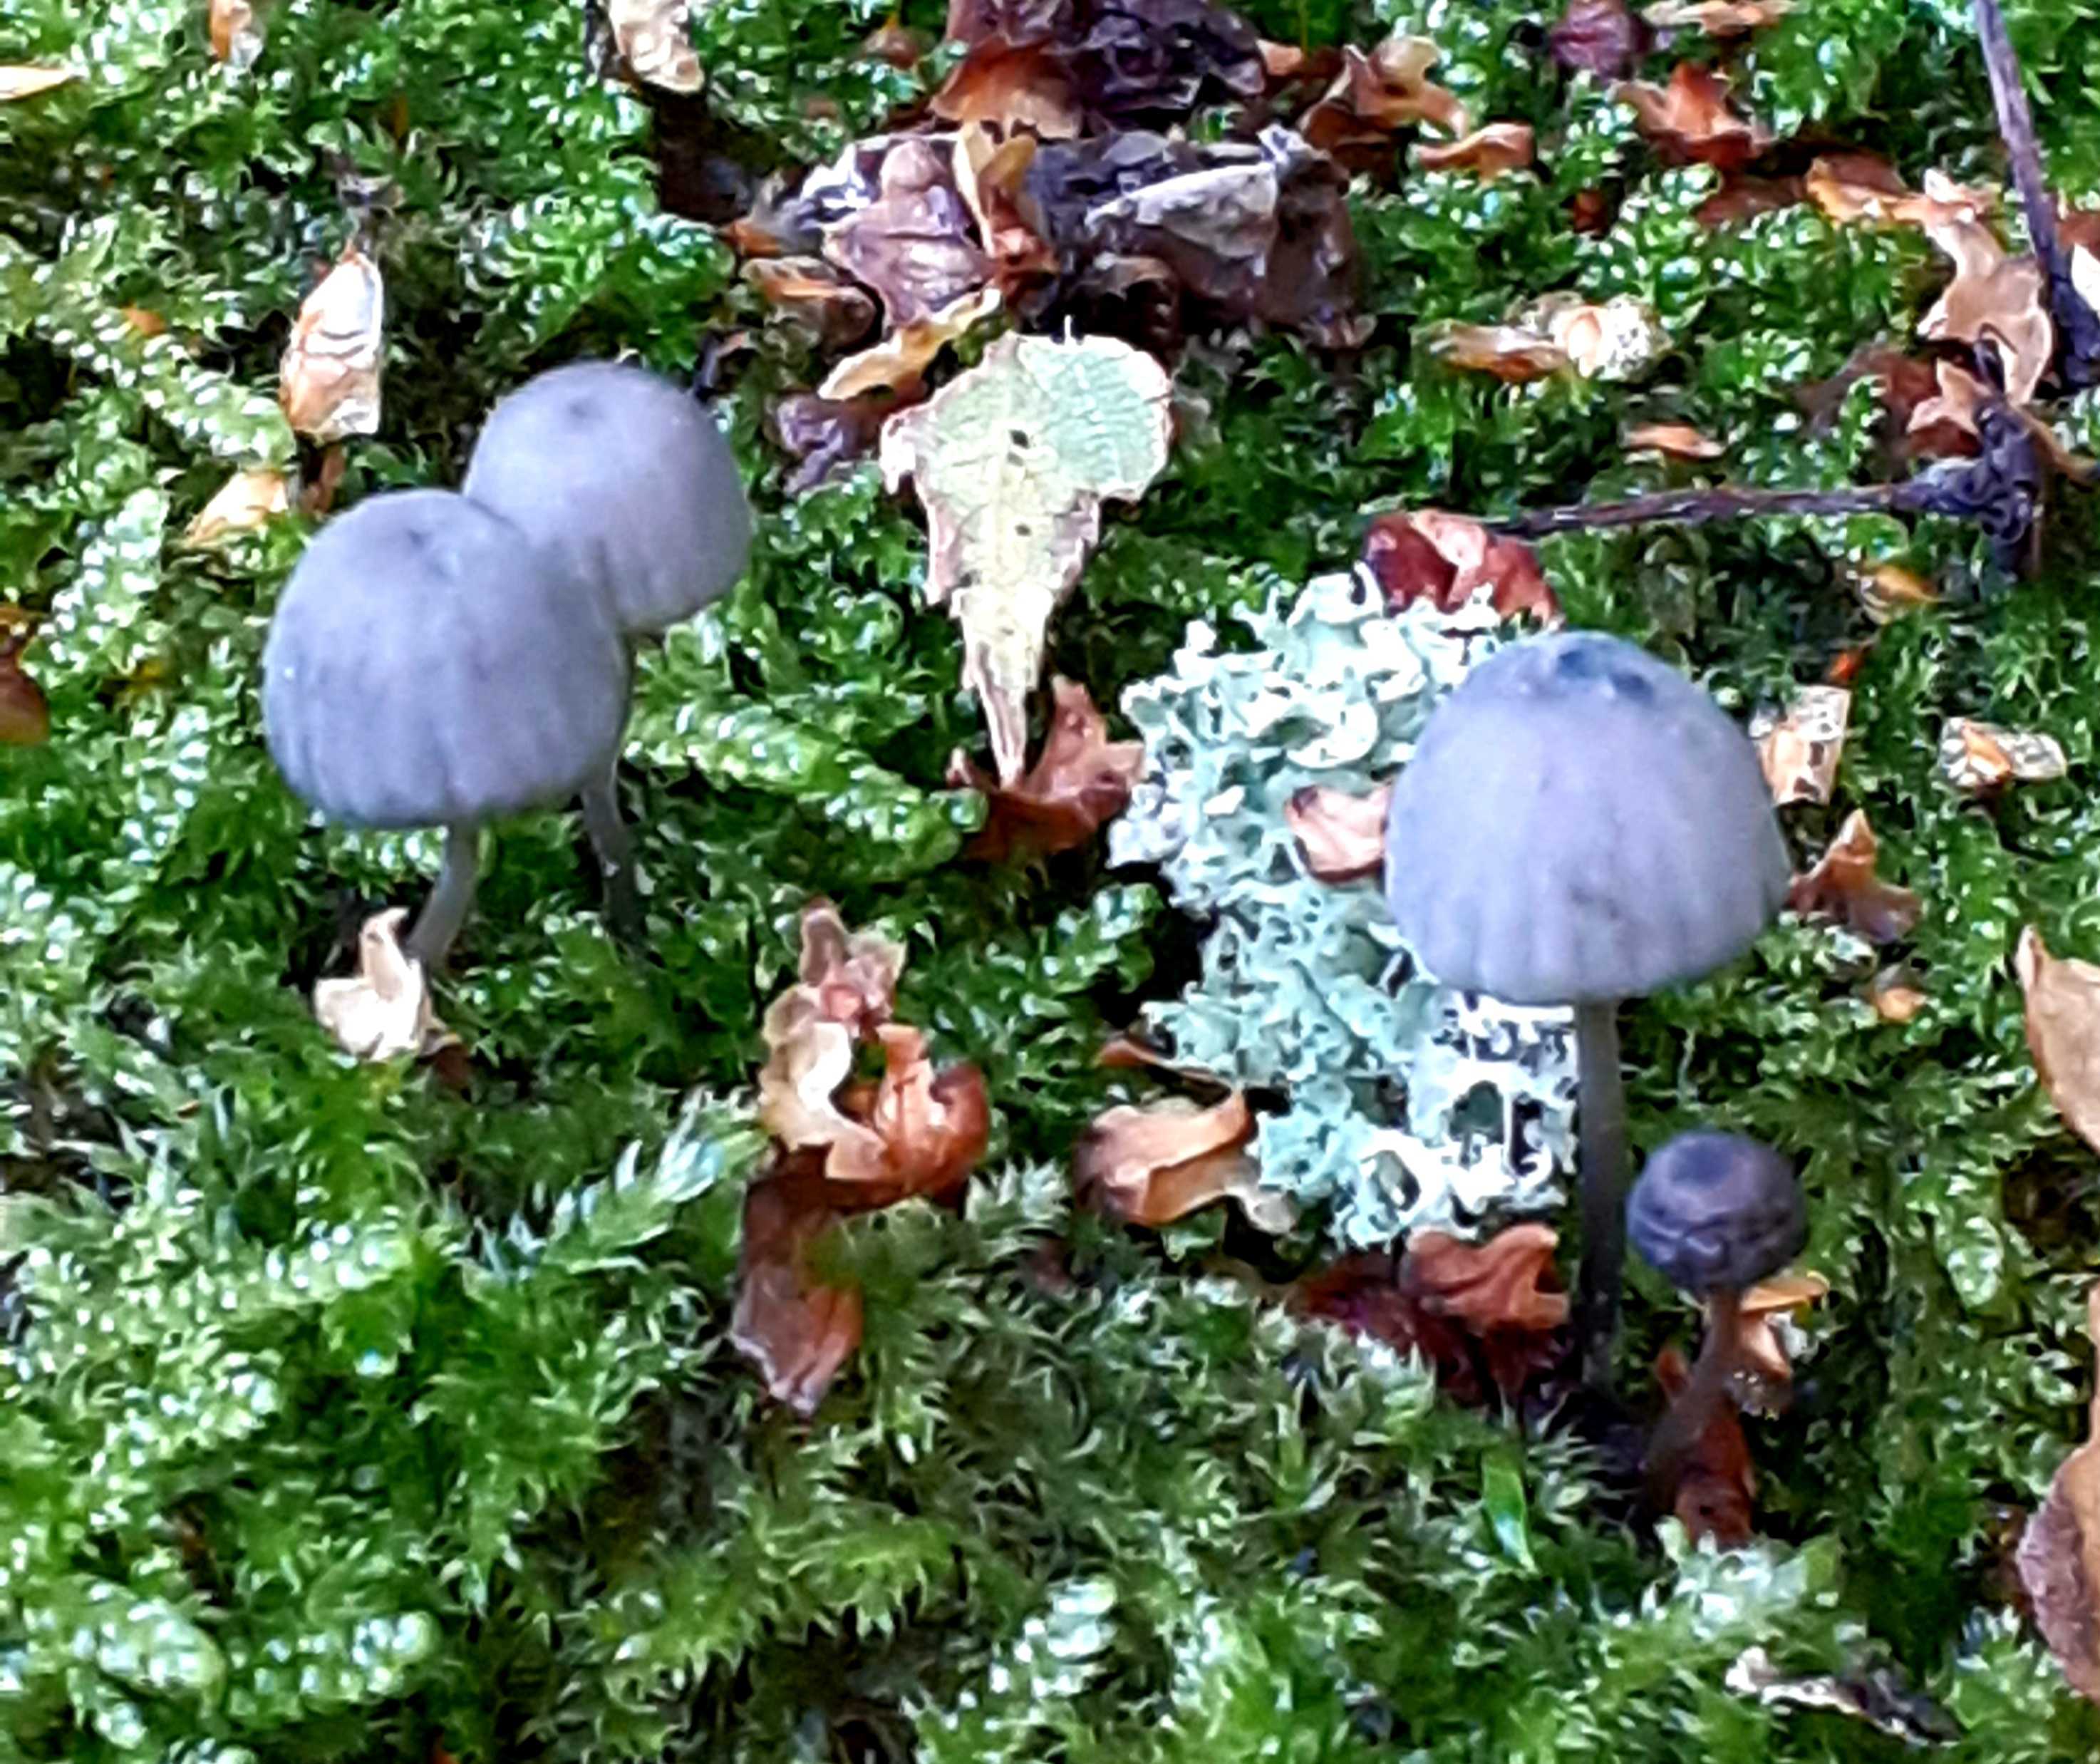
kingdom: Fungi
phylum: Basidiomycota
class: Agaricomycetes
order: Agaricales
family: Mycenaceae
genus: Mycena
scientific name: Mycena pseudocorticola
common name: gråblå bark-huesvamp
